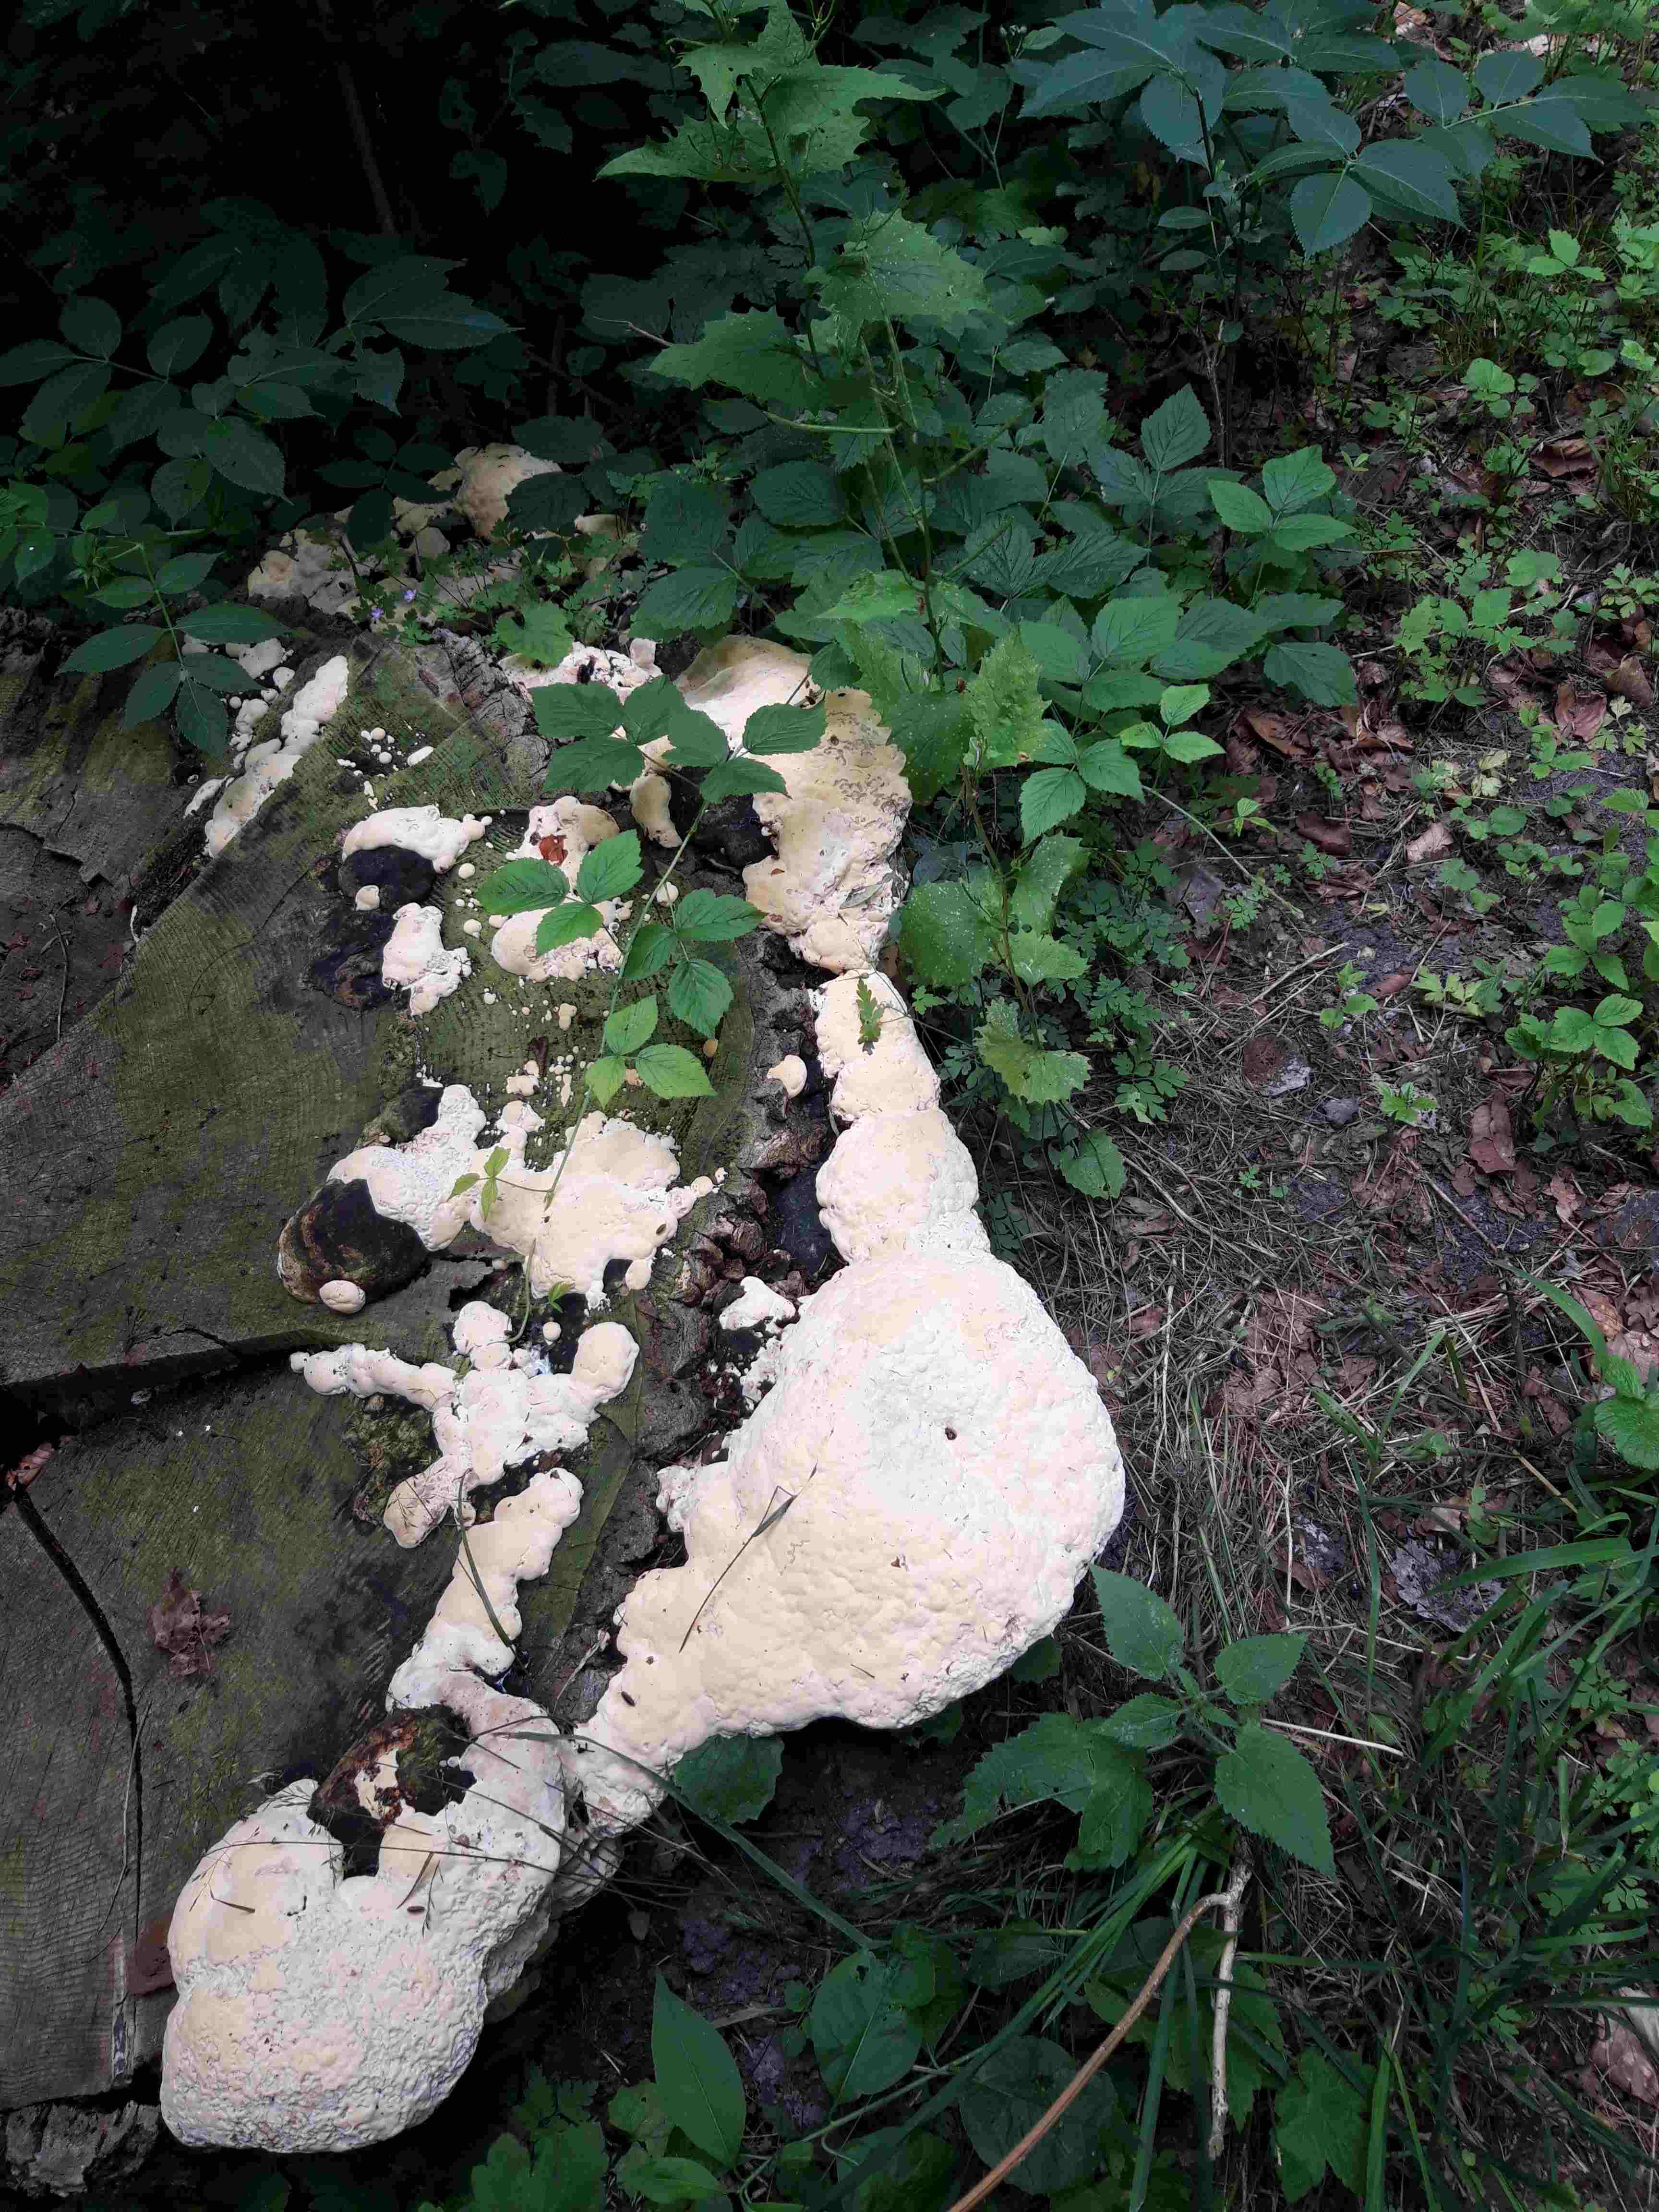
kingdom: Fungi
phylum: Basidiomycota
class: Agaricomycetes
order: Polyporales
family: Polyporaceae
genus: Vanderbylia
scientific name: Vanderbylia fraxinea
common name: stor kanelporesvamp
